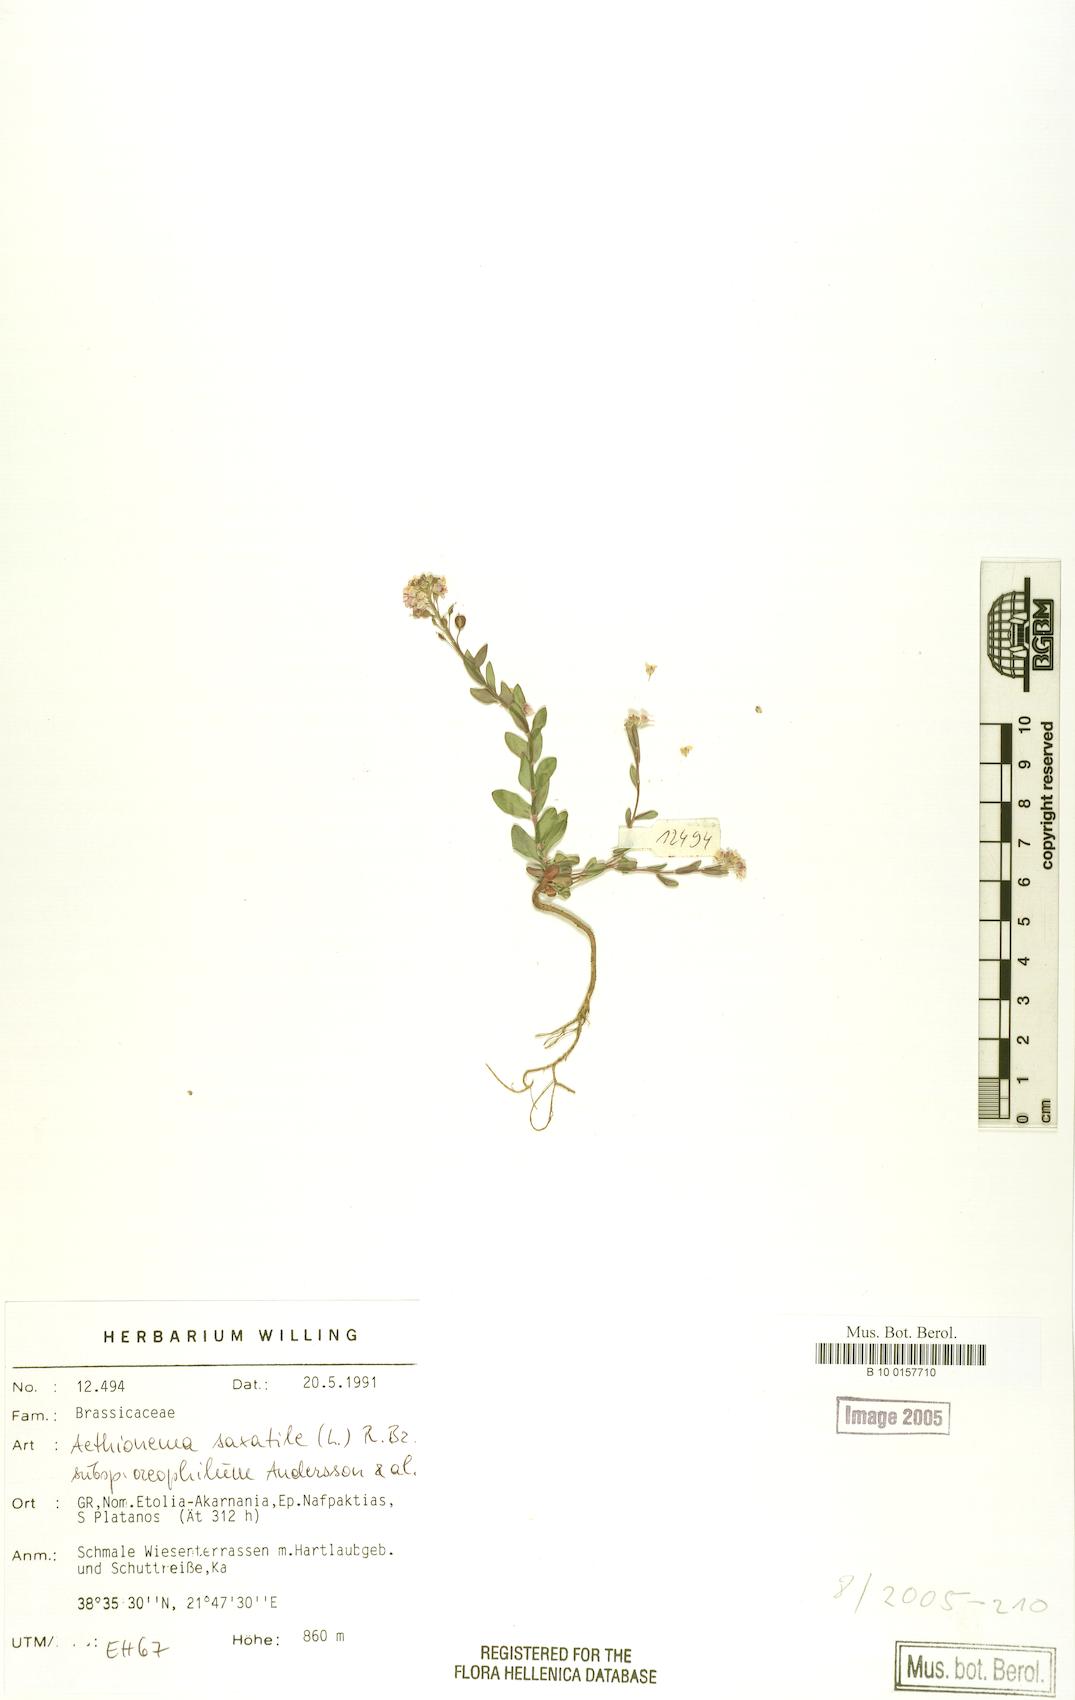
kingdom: Plantae
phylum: Tracheophyta
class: Magnoliopsida
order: Brassicales
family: Brassicaceae
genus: Aethionema
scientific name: Aethionema saxatile
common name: Burnt candytuft
